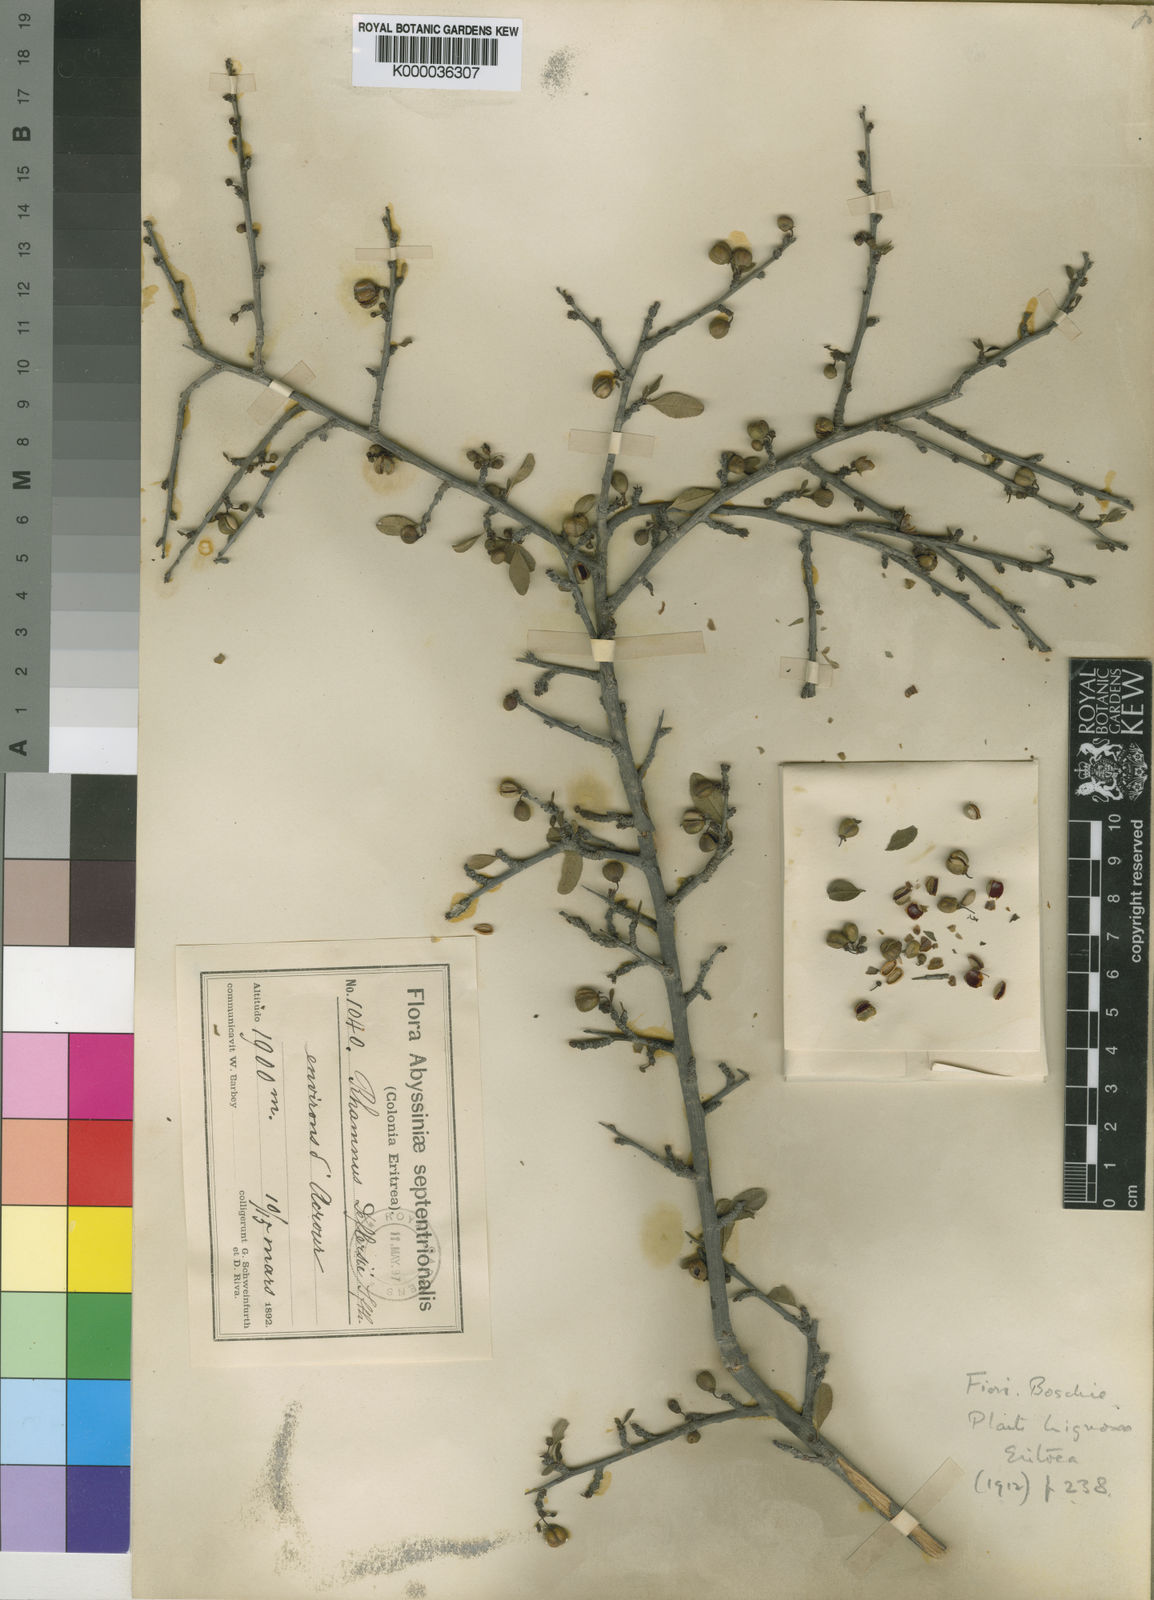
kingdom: Plantae
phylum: Tracheophyta
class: Magnoliopsida
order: Rosales
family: Rhamnaceae
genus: Rhamnus
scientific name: Rhamnus staddo
